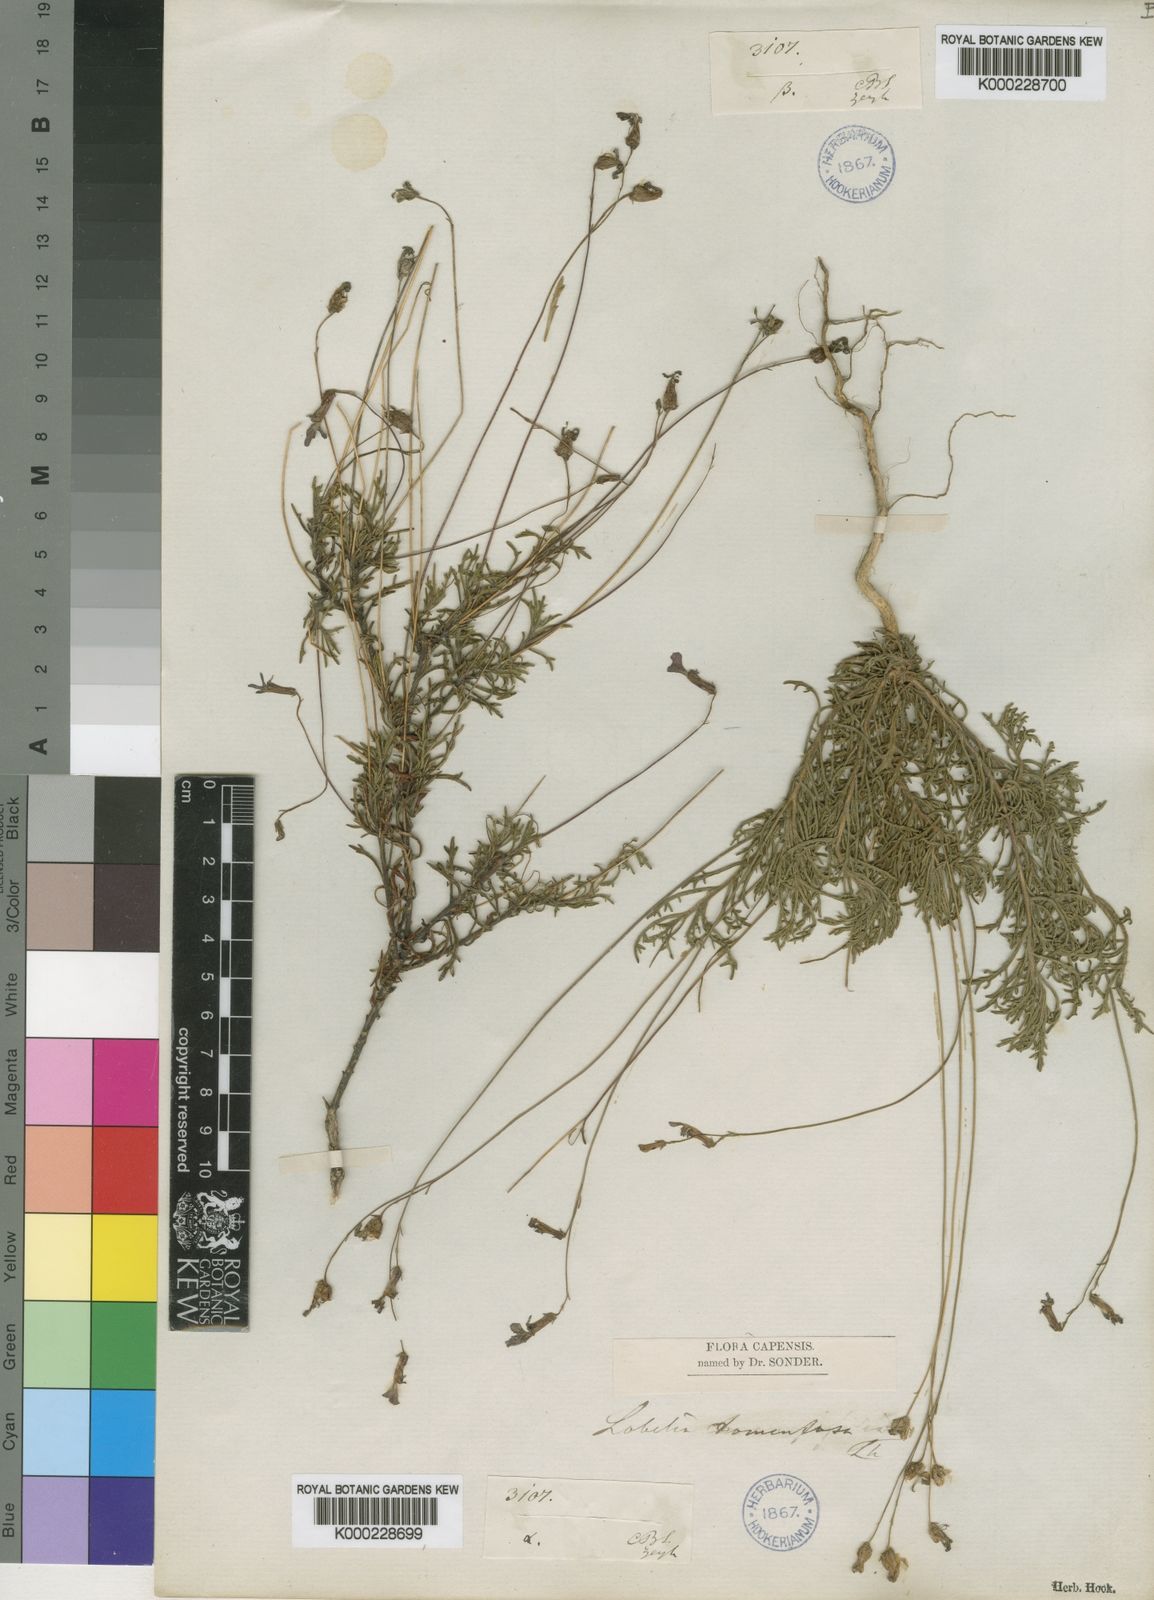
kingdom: Plantae
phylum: Tracheophyta
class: Magnoliopsida
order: Asterales
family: Campanulaceae
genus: Lobelia
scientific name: Lobelia tomentosa
